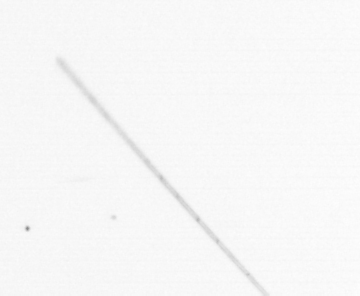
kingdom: Chromista
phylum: Ochrophyta
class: Bacillariophyceae
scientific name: Bacillariophyceae
